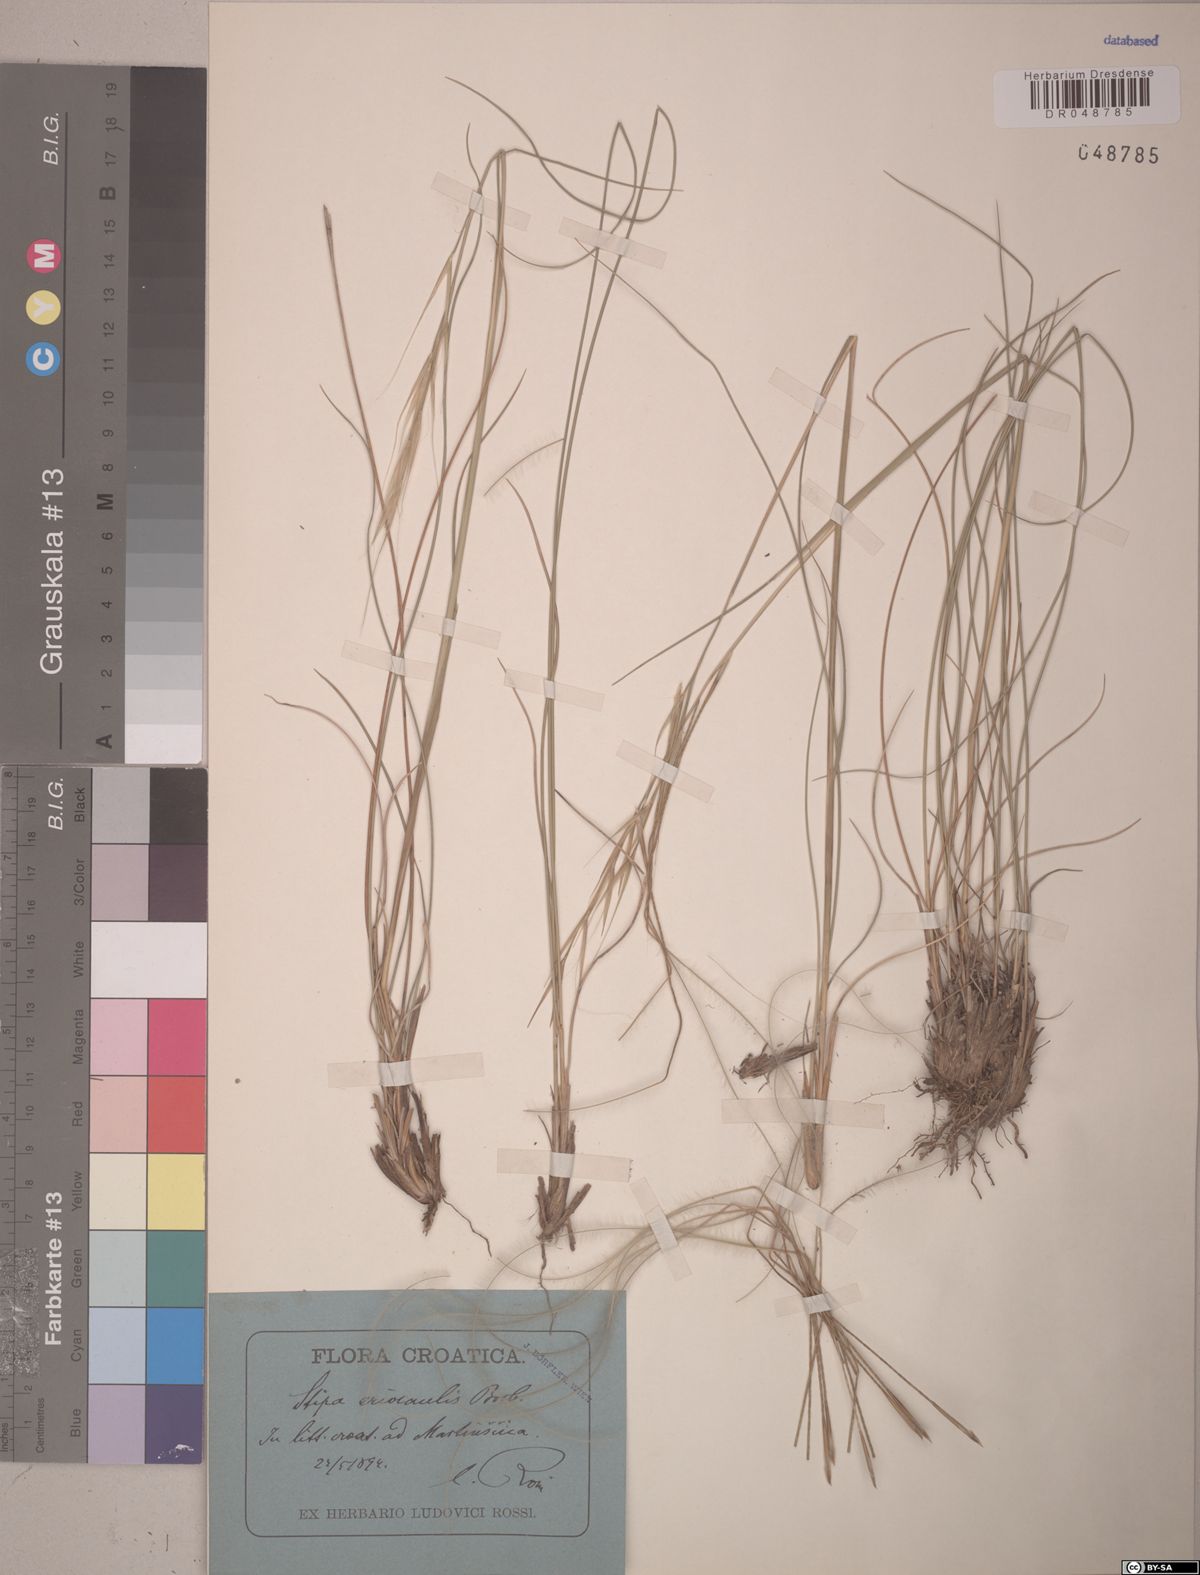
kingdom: Plantae
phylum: Tracheophyta
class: Liliopsida
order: Poales
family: Poaceae
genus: Stipa
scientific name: Stipa pennata
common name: European feather grass
